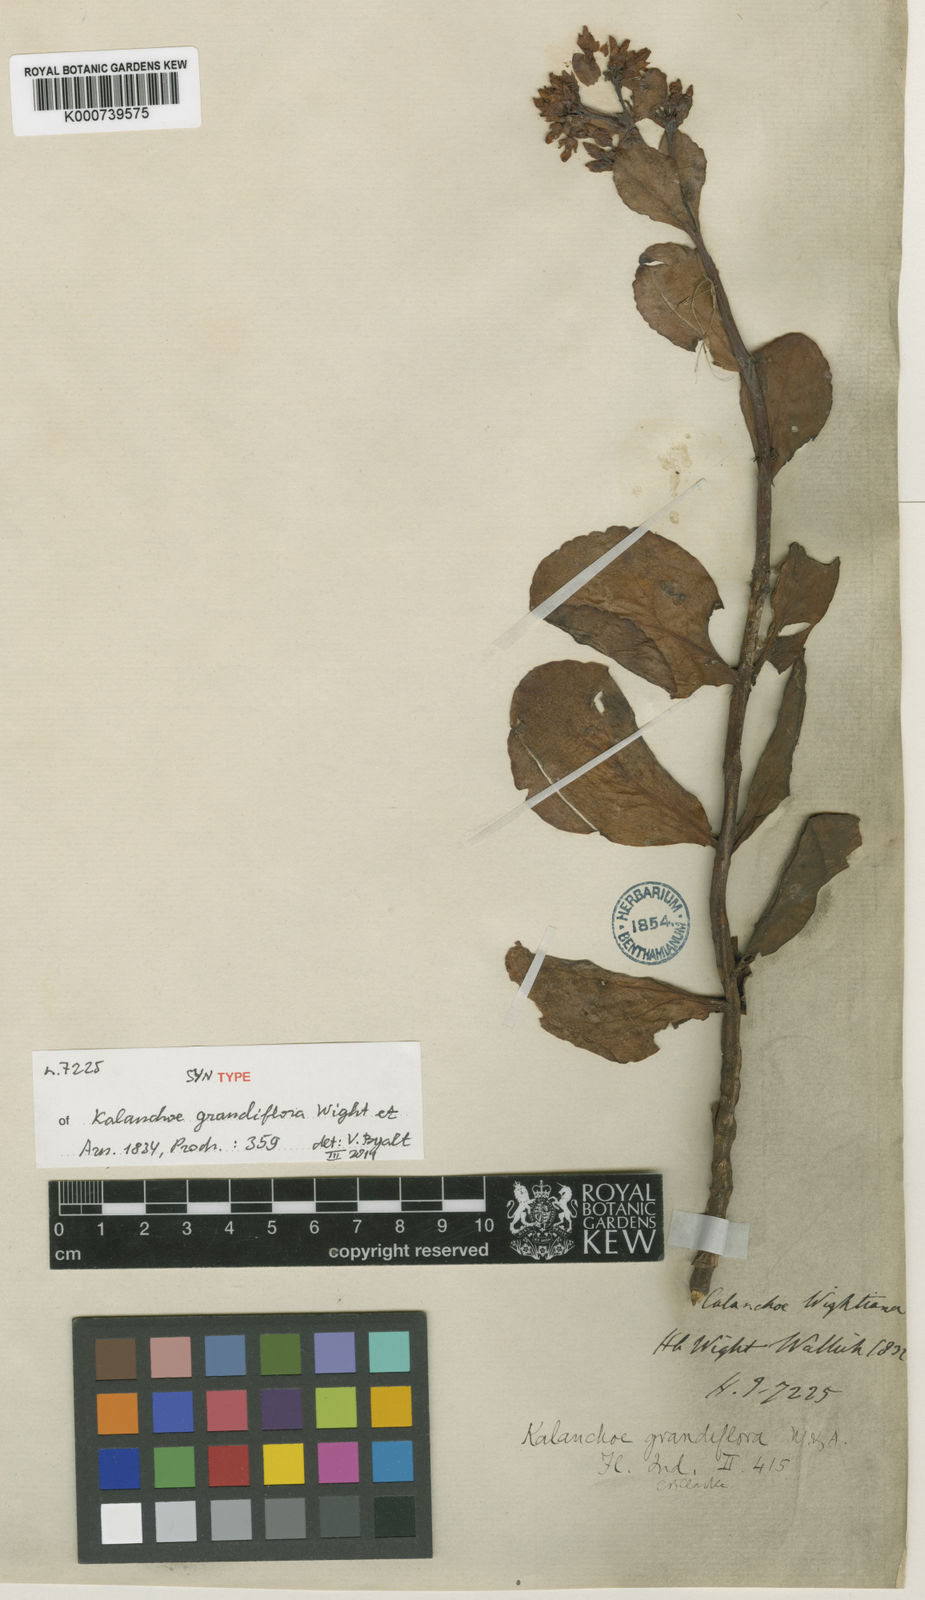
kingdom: Plantae
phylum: Tracheophyta
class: Magnoliopsida
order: Saxifragales
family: Crassulaceae
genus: Kalanchoe
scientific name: Kalanchoe lanceolata
